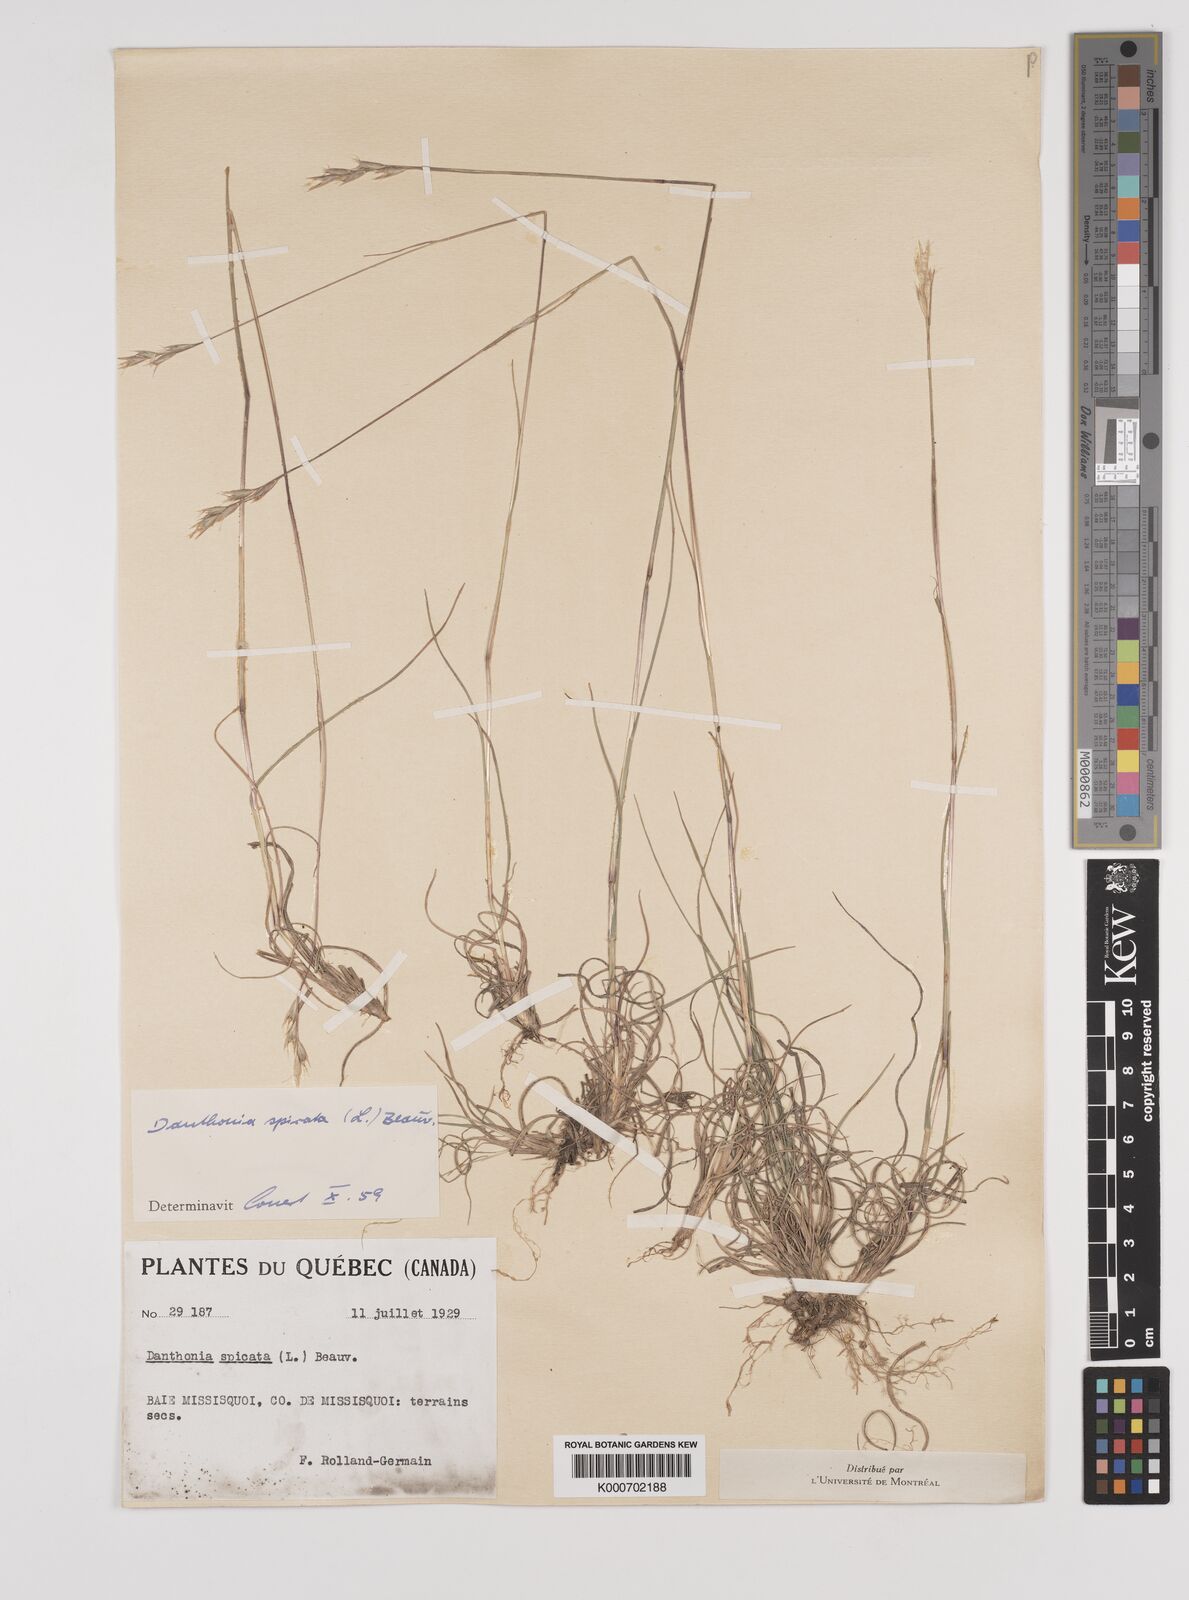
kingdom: Plantae
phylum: Tracheophyta
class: Liliopsida
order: Poales
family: Poaceae
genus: Danthonia
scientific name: Danthonia spicata
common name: Common wild oatgrass
